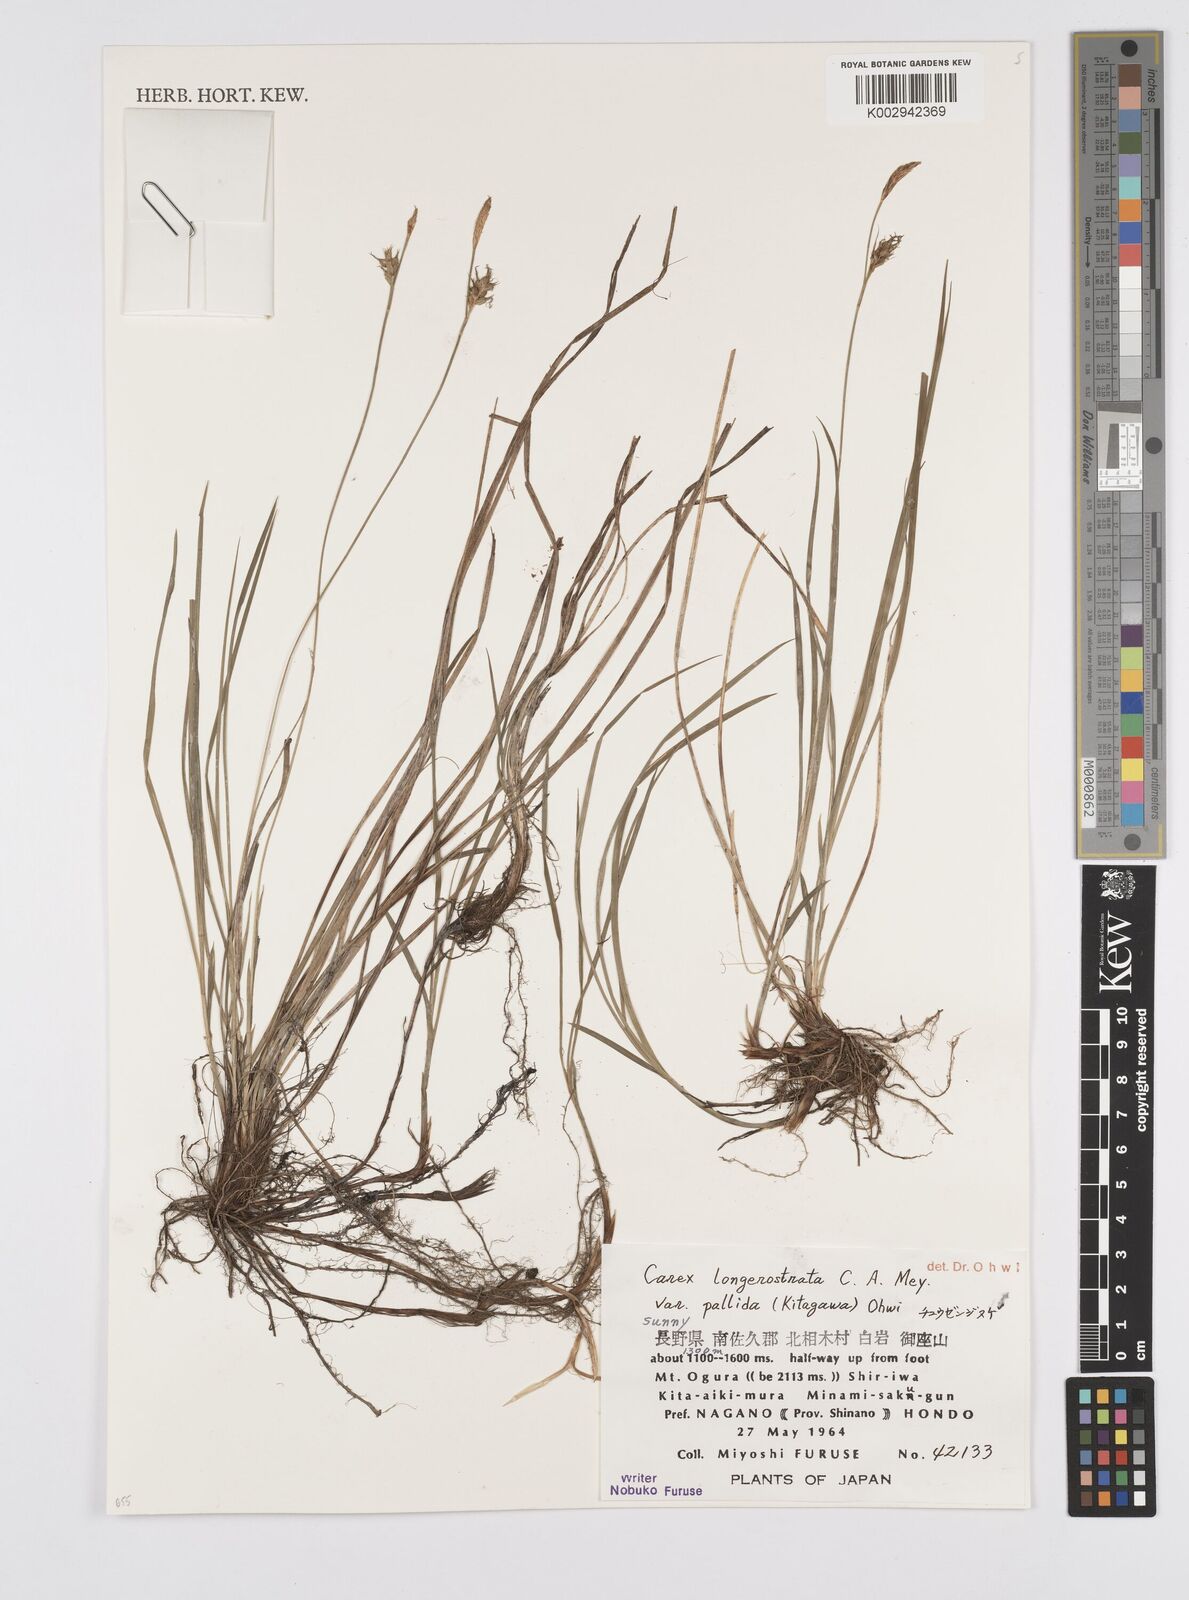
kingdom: Plantae
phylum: Tracheophyta
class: Liliopsida
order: Poales
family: Cyperaceae
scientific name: Cyperaceae
